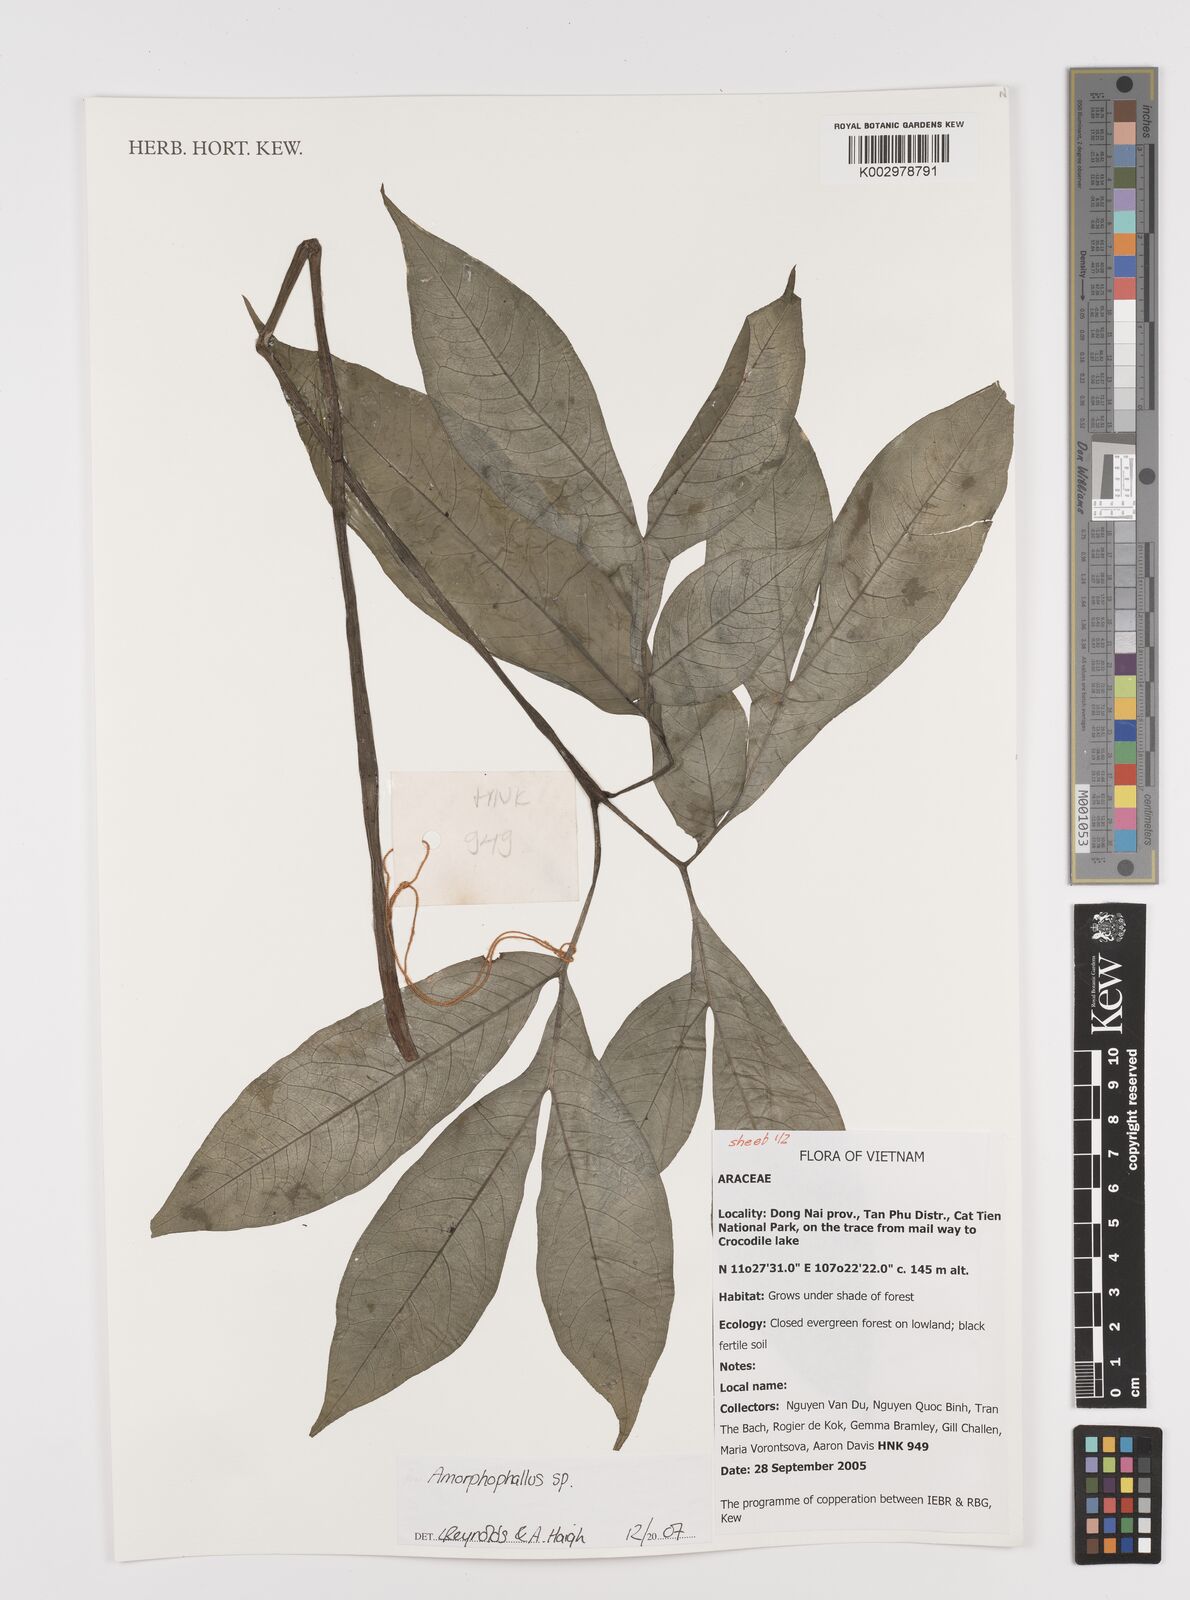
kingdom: Plantae
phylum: Tracheophyta
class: Liliopsida
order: Alismatales
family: Araceae
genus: Amorphophallus
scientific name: Amorphophallus
